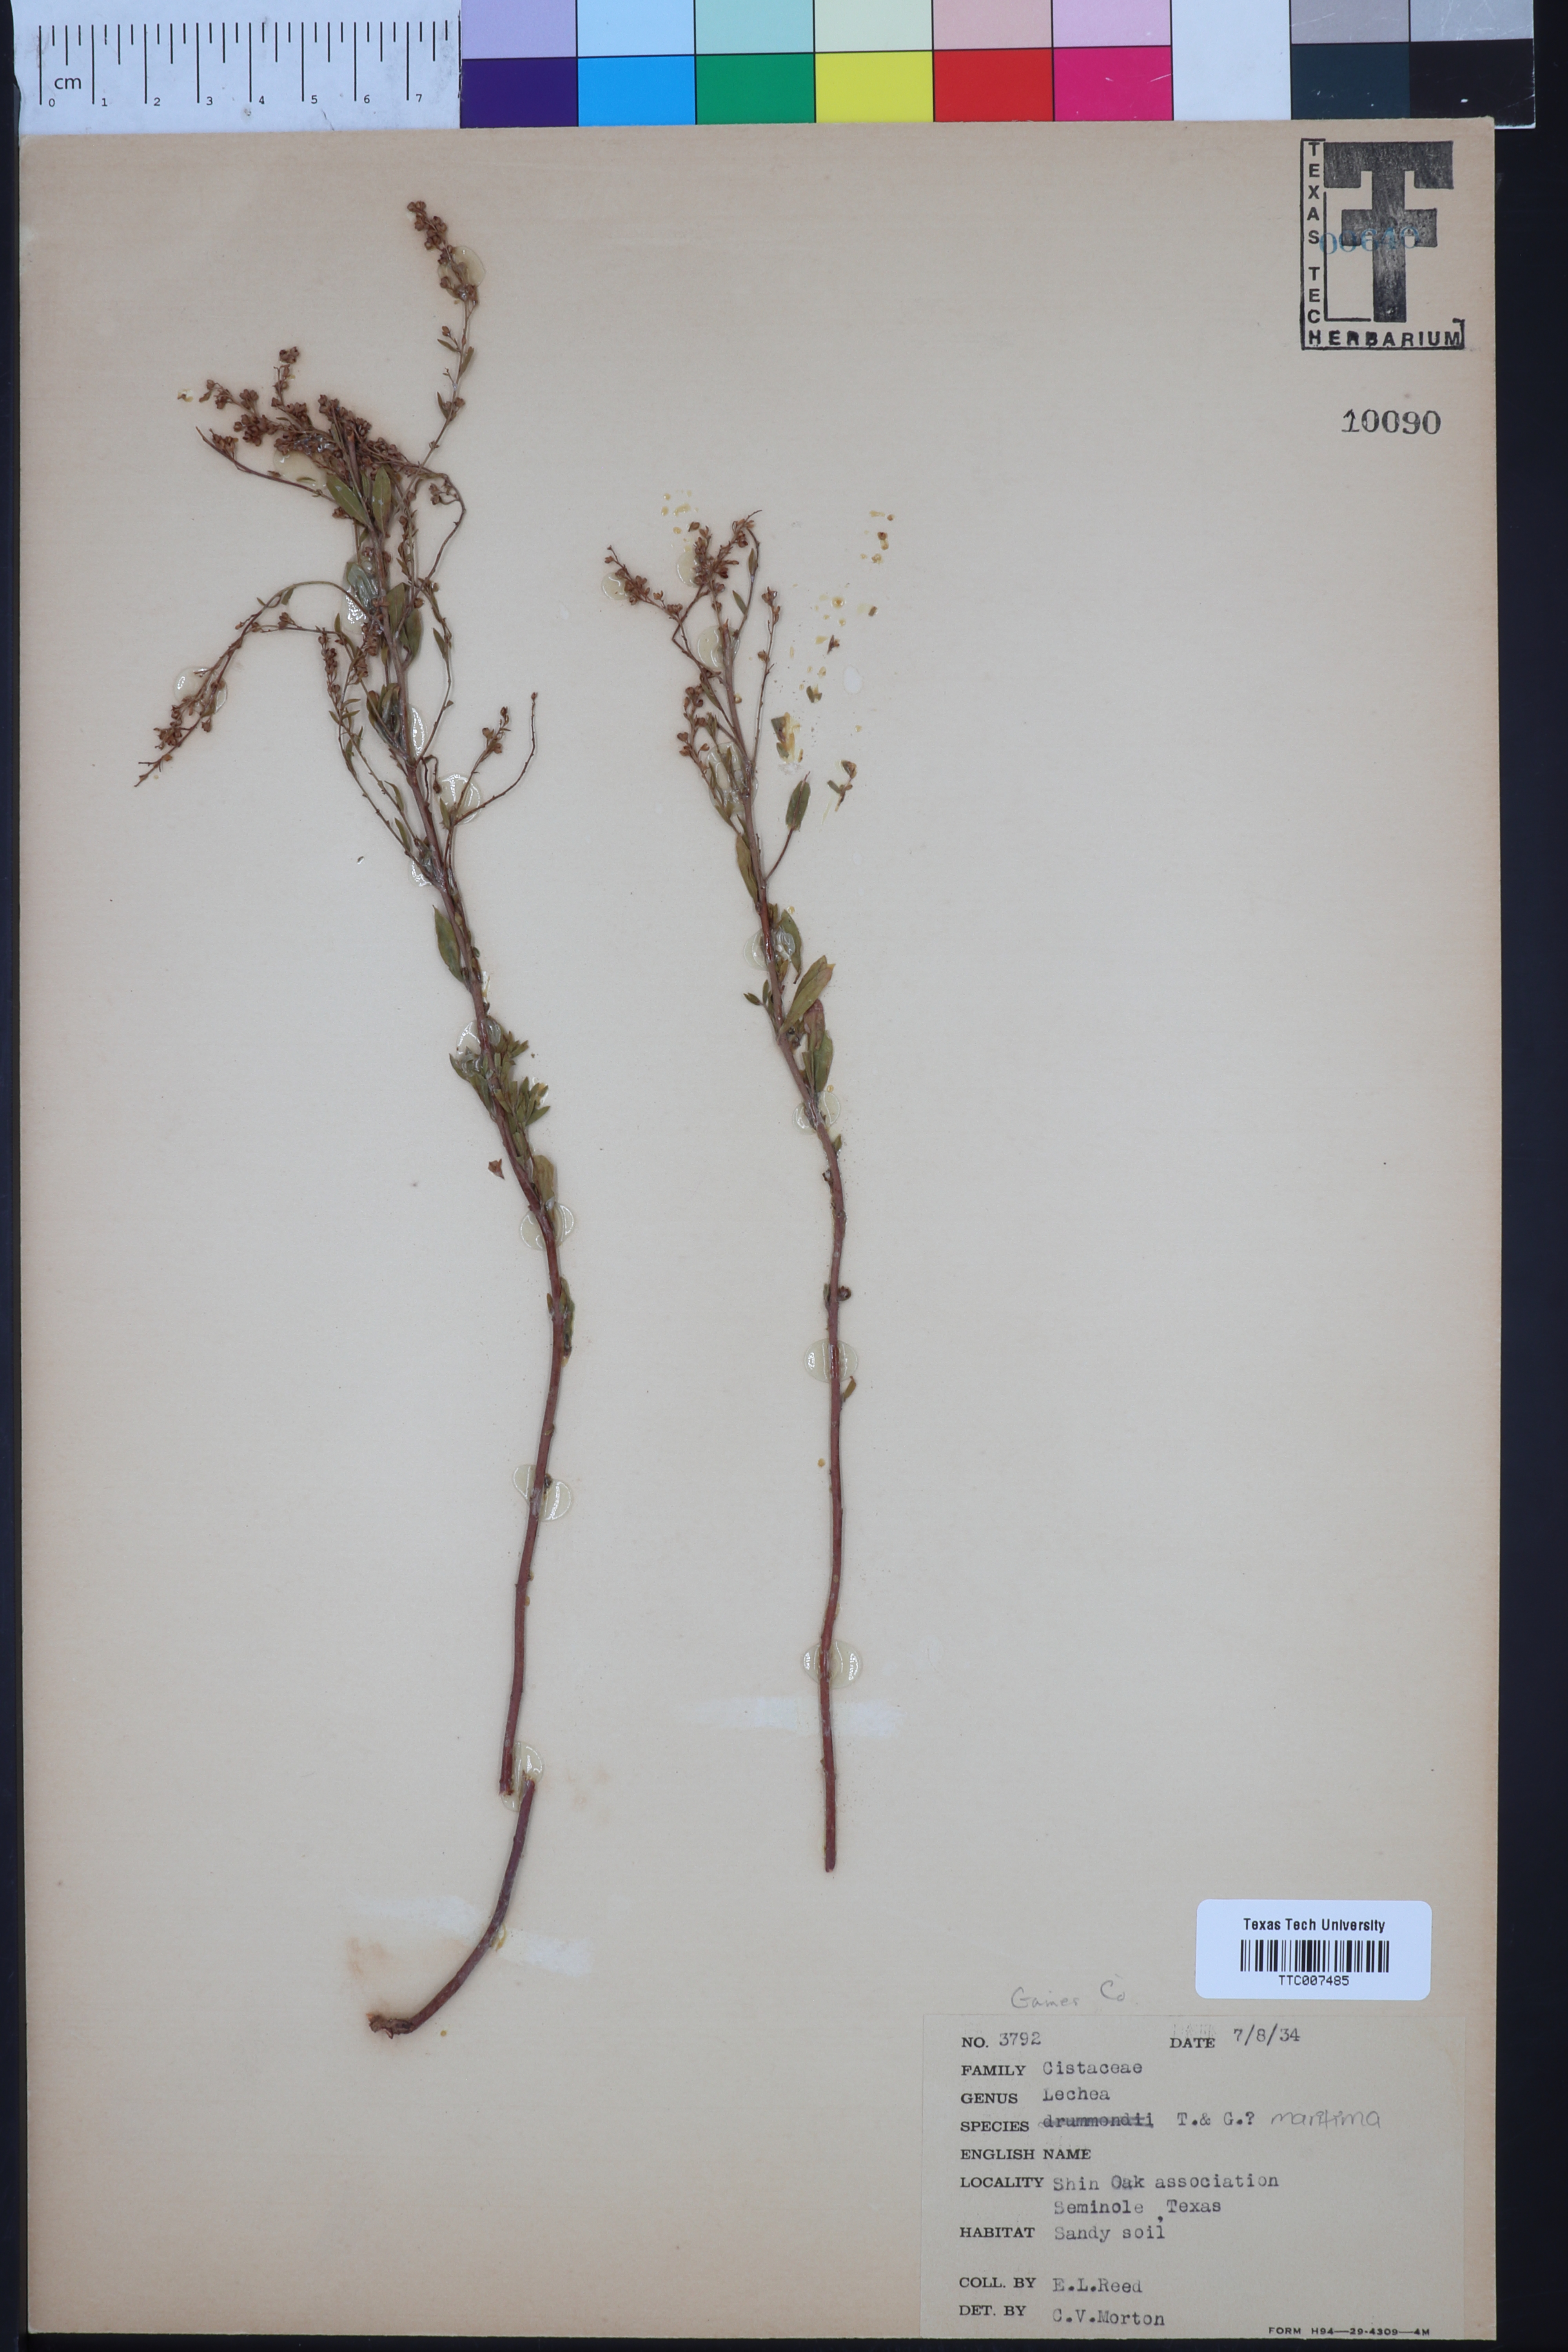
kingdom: Plantae
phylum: Tracheophyta
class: Magnoliopsida
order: Malvales
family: Cistaceae
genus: Lechea
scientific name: Lechea drummondii
